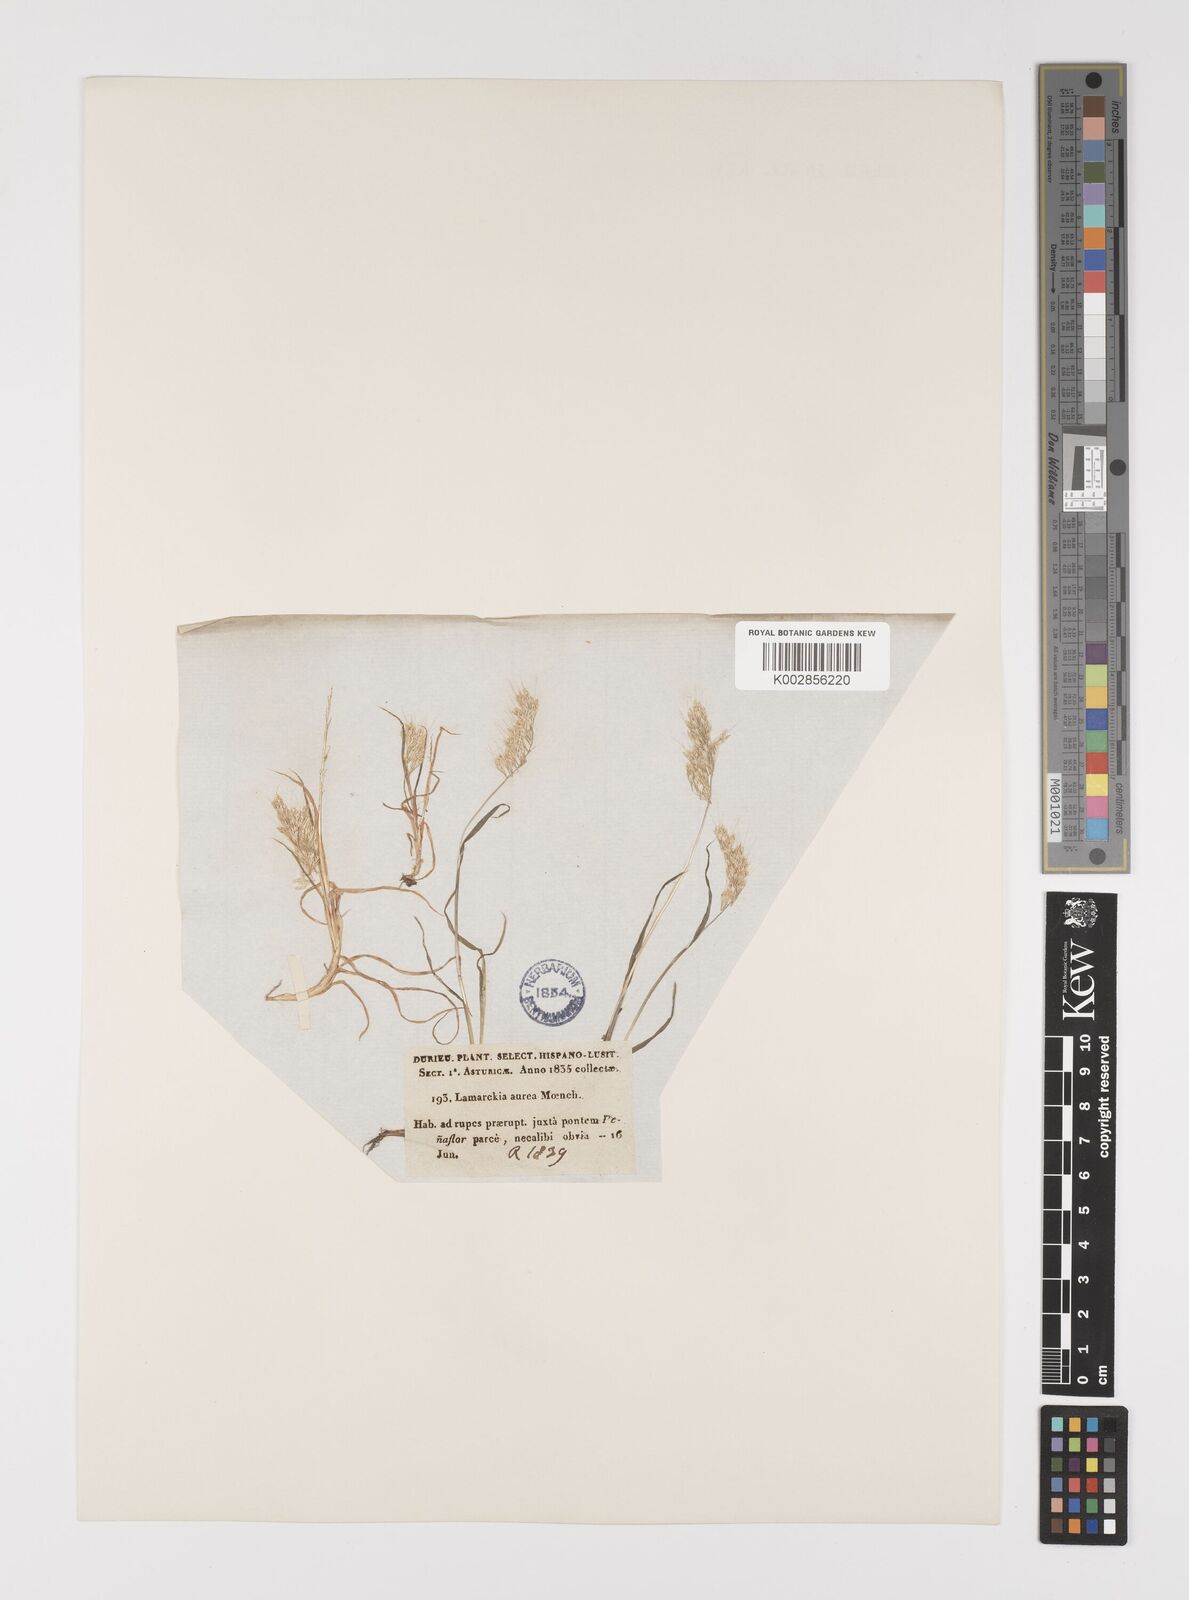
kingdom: Plantae
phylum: Tracheophyta
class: Liliopsida
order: Poales
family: Poaceae
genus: Lamarckia
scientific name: Lamarckia aurea
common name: Golden dog's-tail
